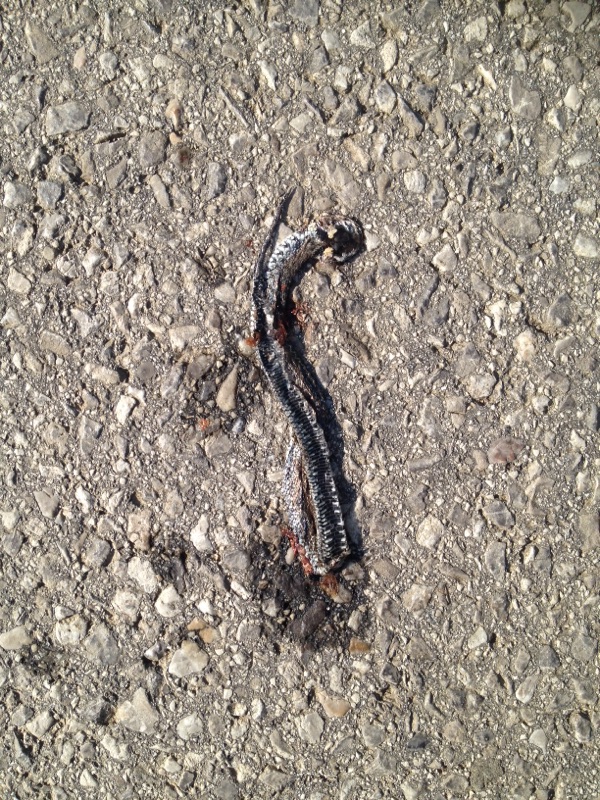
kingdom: Animalia
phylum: Chordata
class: Squamata
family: Colubridae
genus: Natrix
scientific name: Natrix natrix
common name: Grass snake
